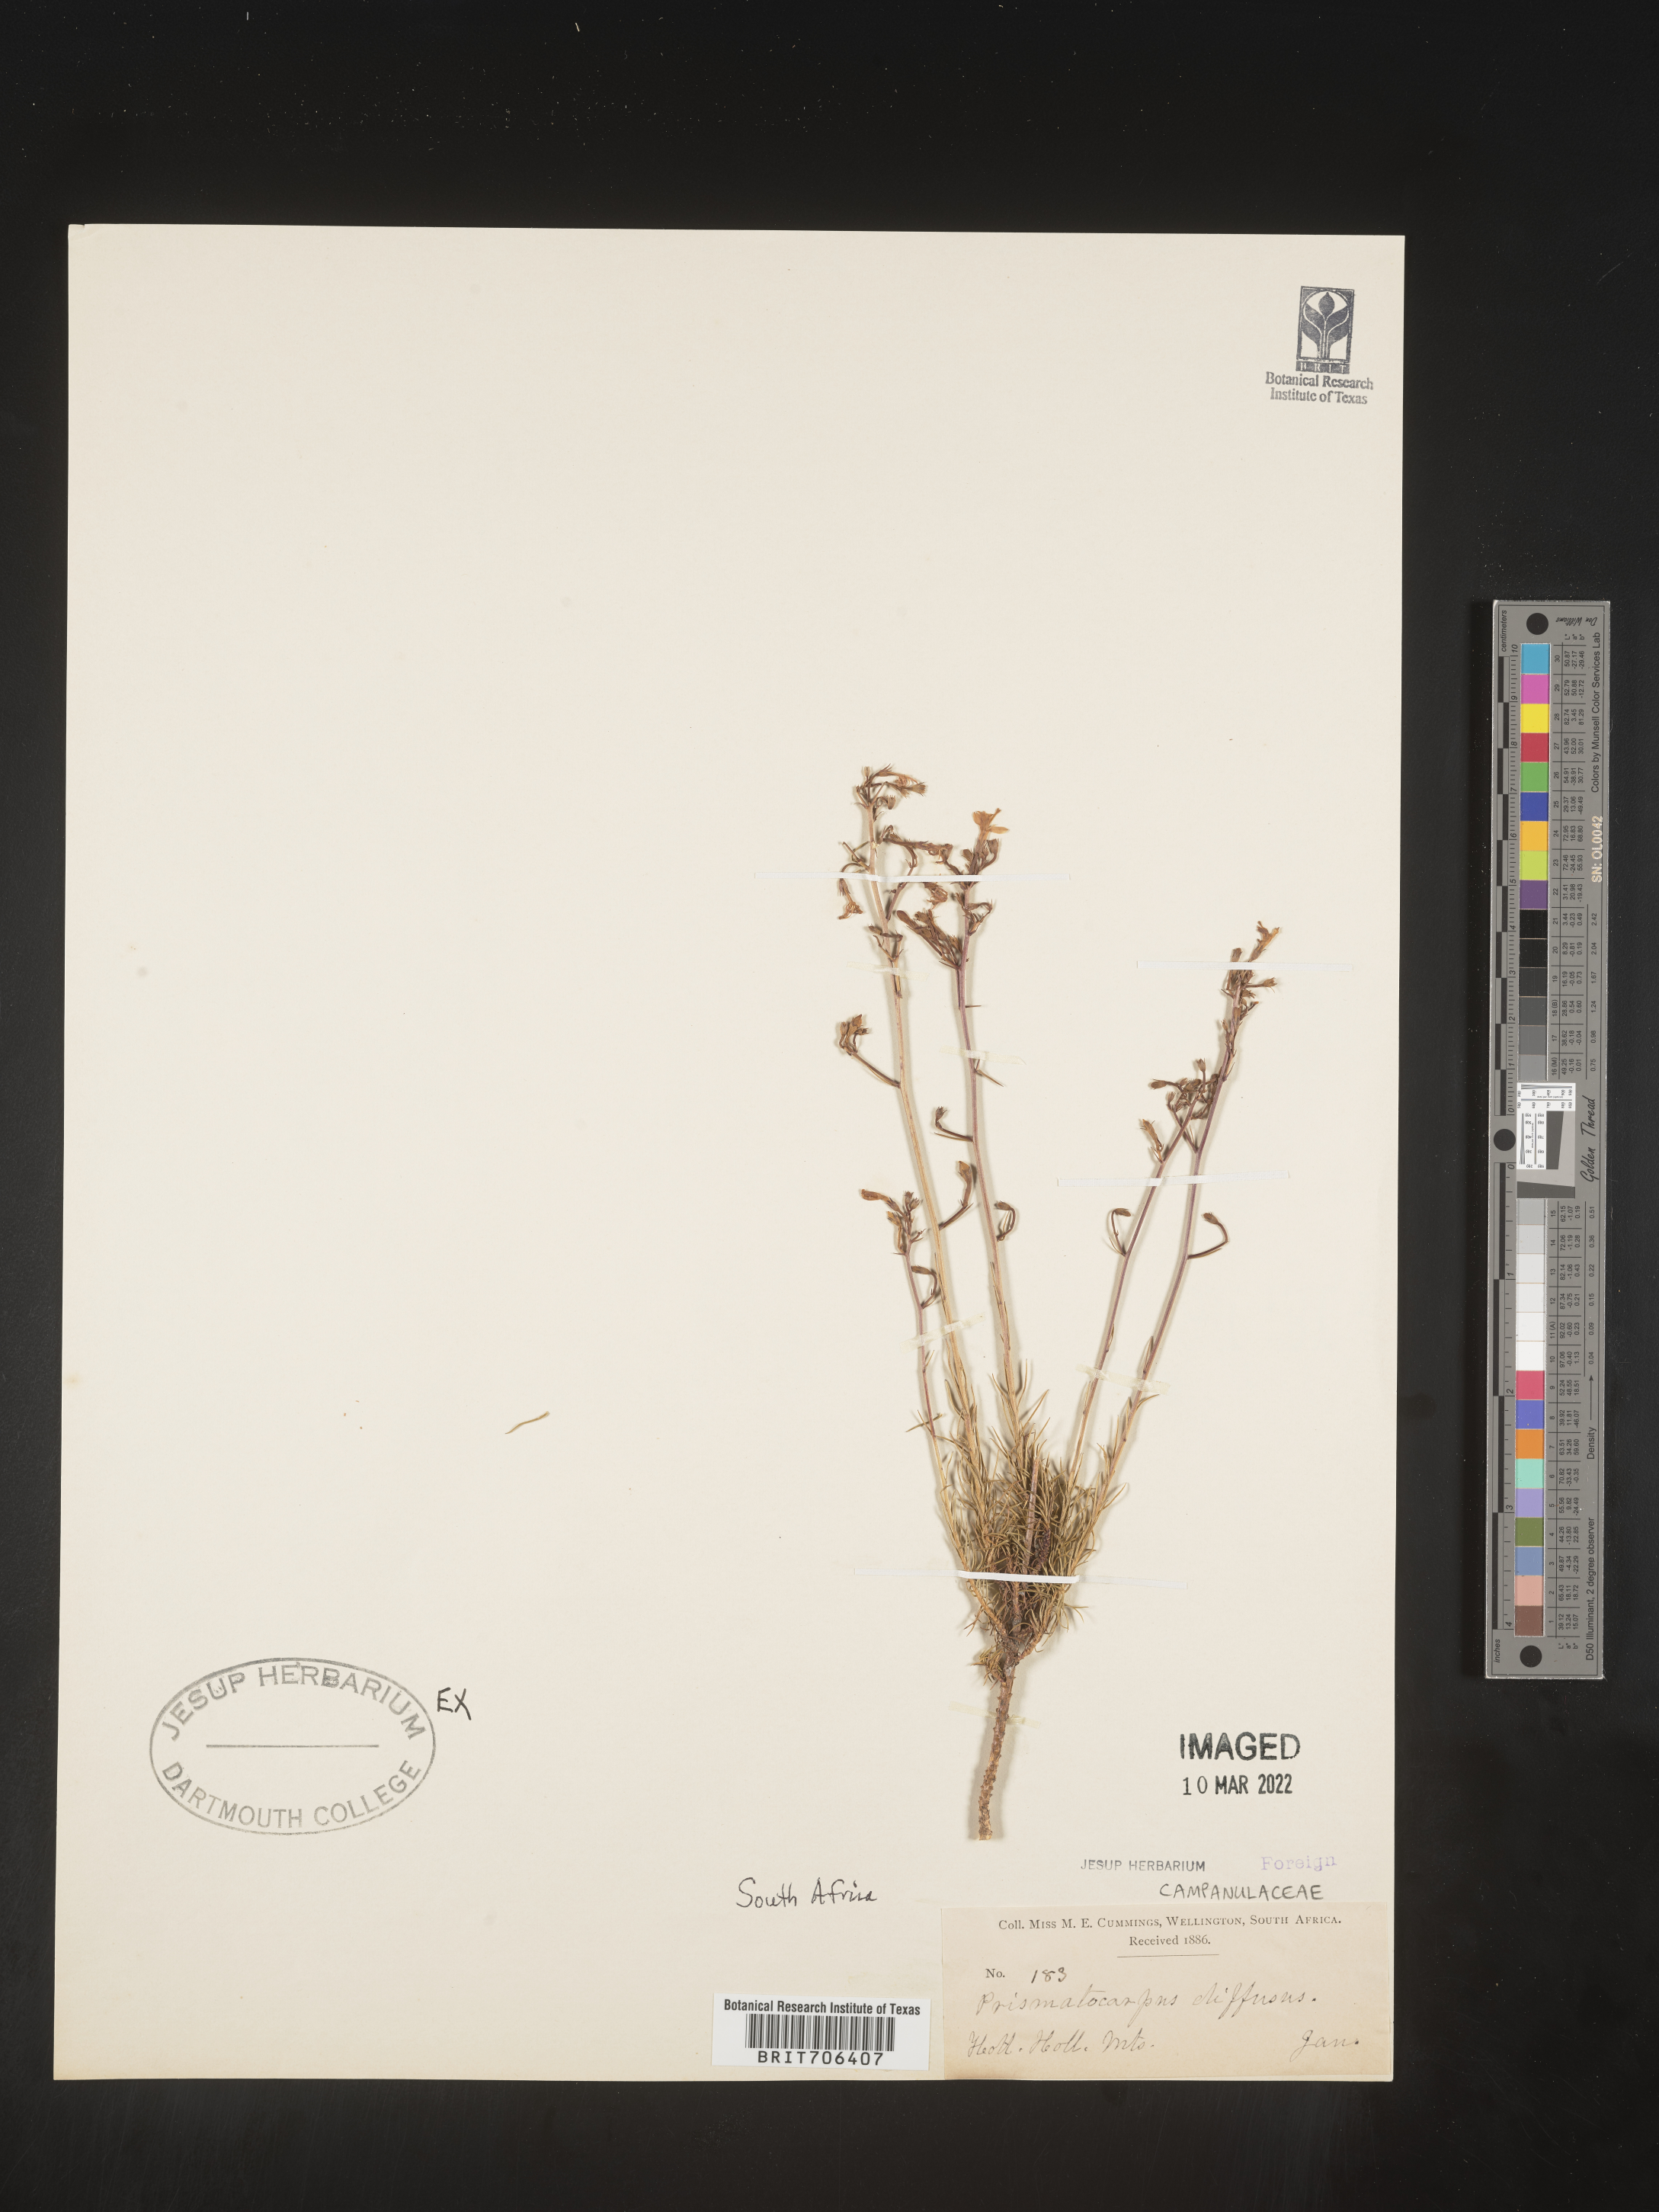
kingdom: Plantae
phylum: Tracheophyta
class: Magnoliopsida
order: Asterales
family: Campanulaceae
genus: Prismatocarpus
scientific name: Prismatocarpus
